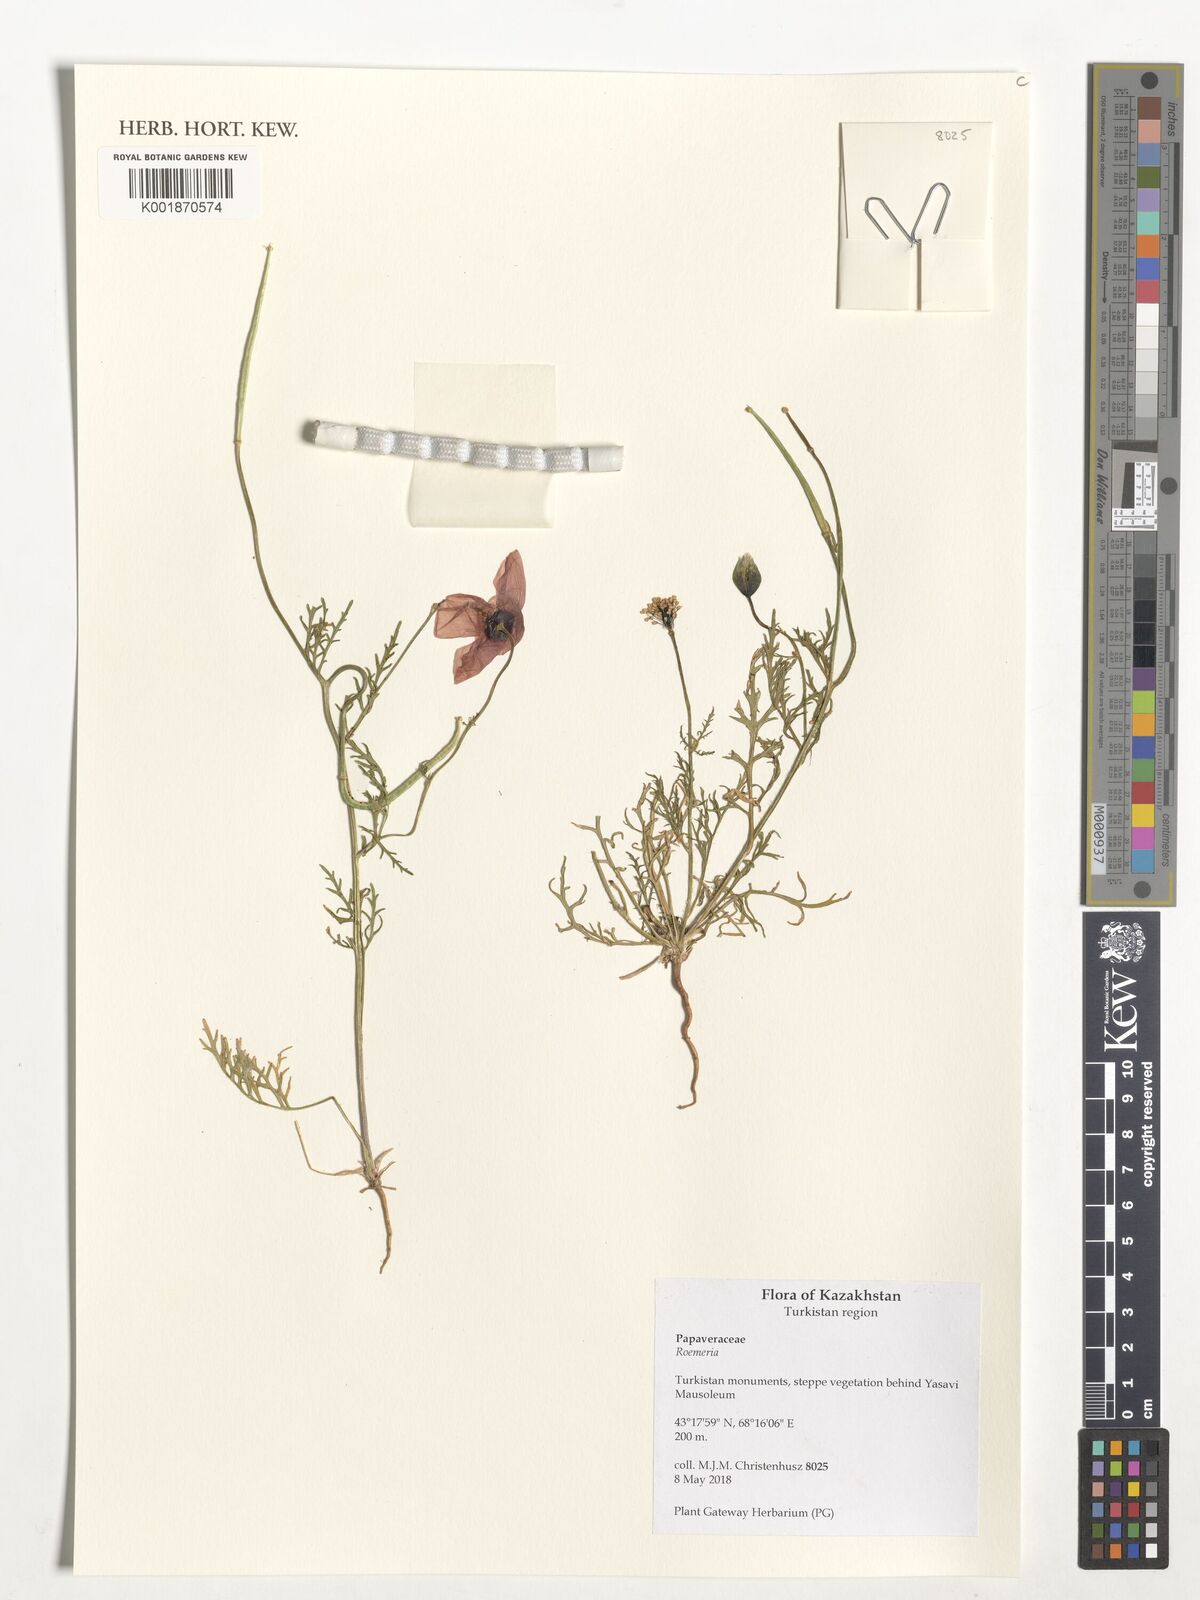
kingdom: Plantae
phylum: Tracheophyta
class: Magnoliopsida
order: Ranunculales
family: Papaveraceae
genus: Roemeria
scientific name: Roemeria
